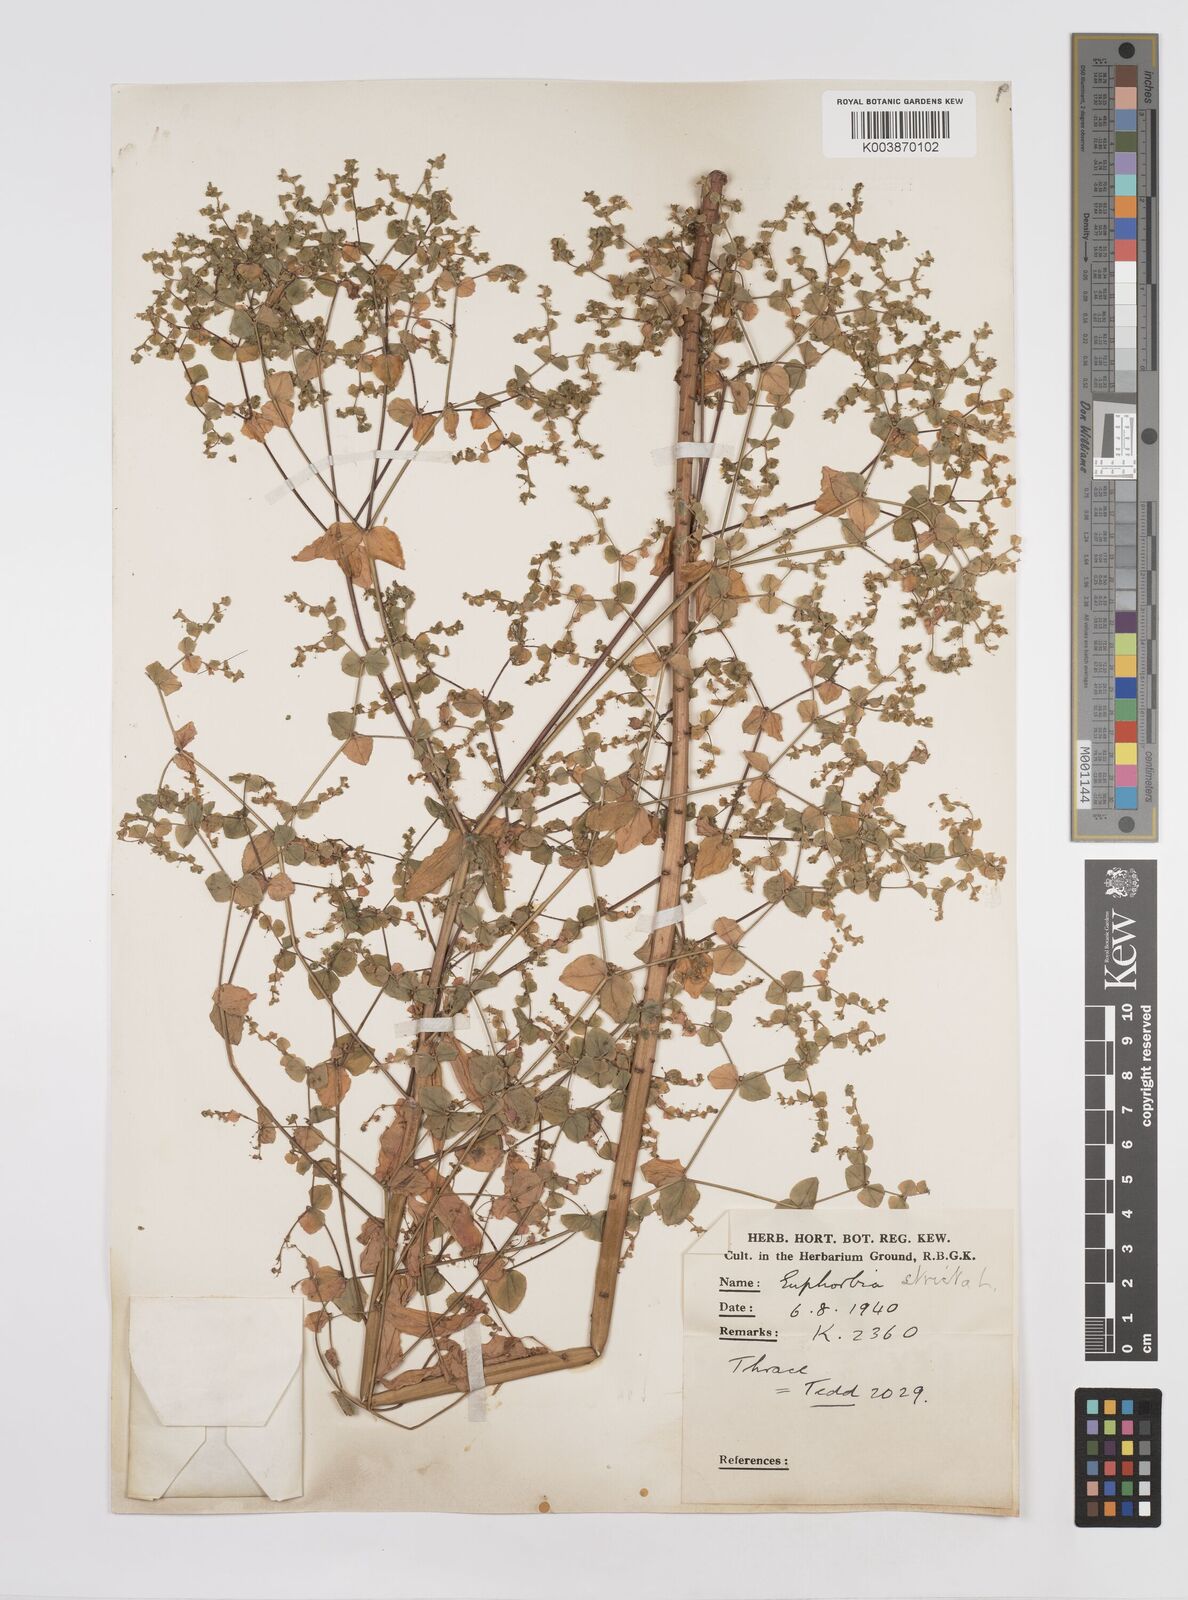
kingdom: Plantae
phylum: Tracheophyta
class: Magnoliopsida
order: Malpighiales
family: Euphorbiaceae
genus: Euphorbia
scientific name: Euphorbia stricta
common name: Upright spurge
